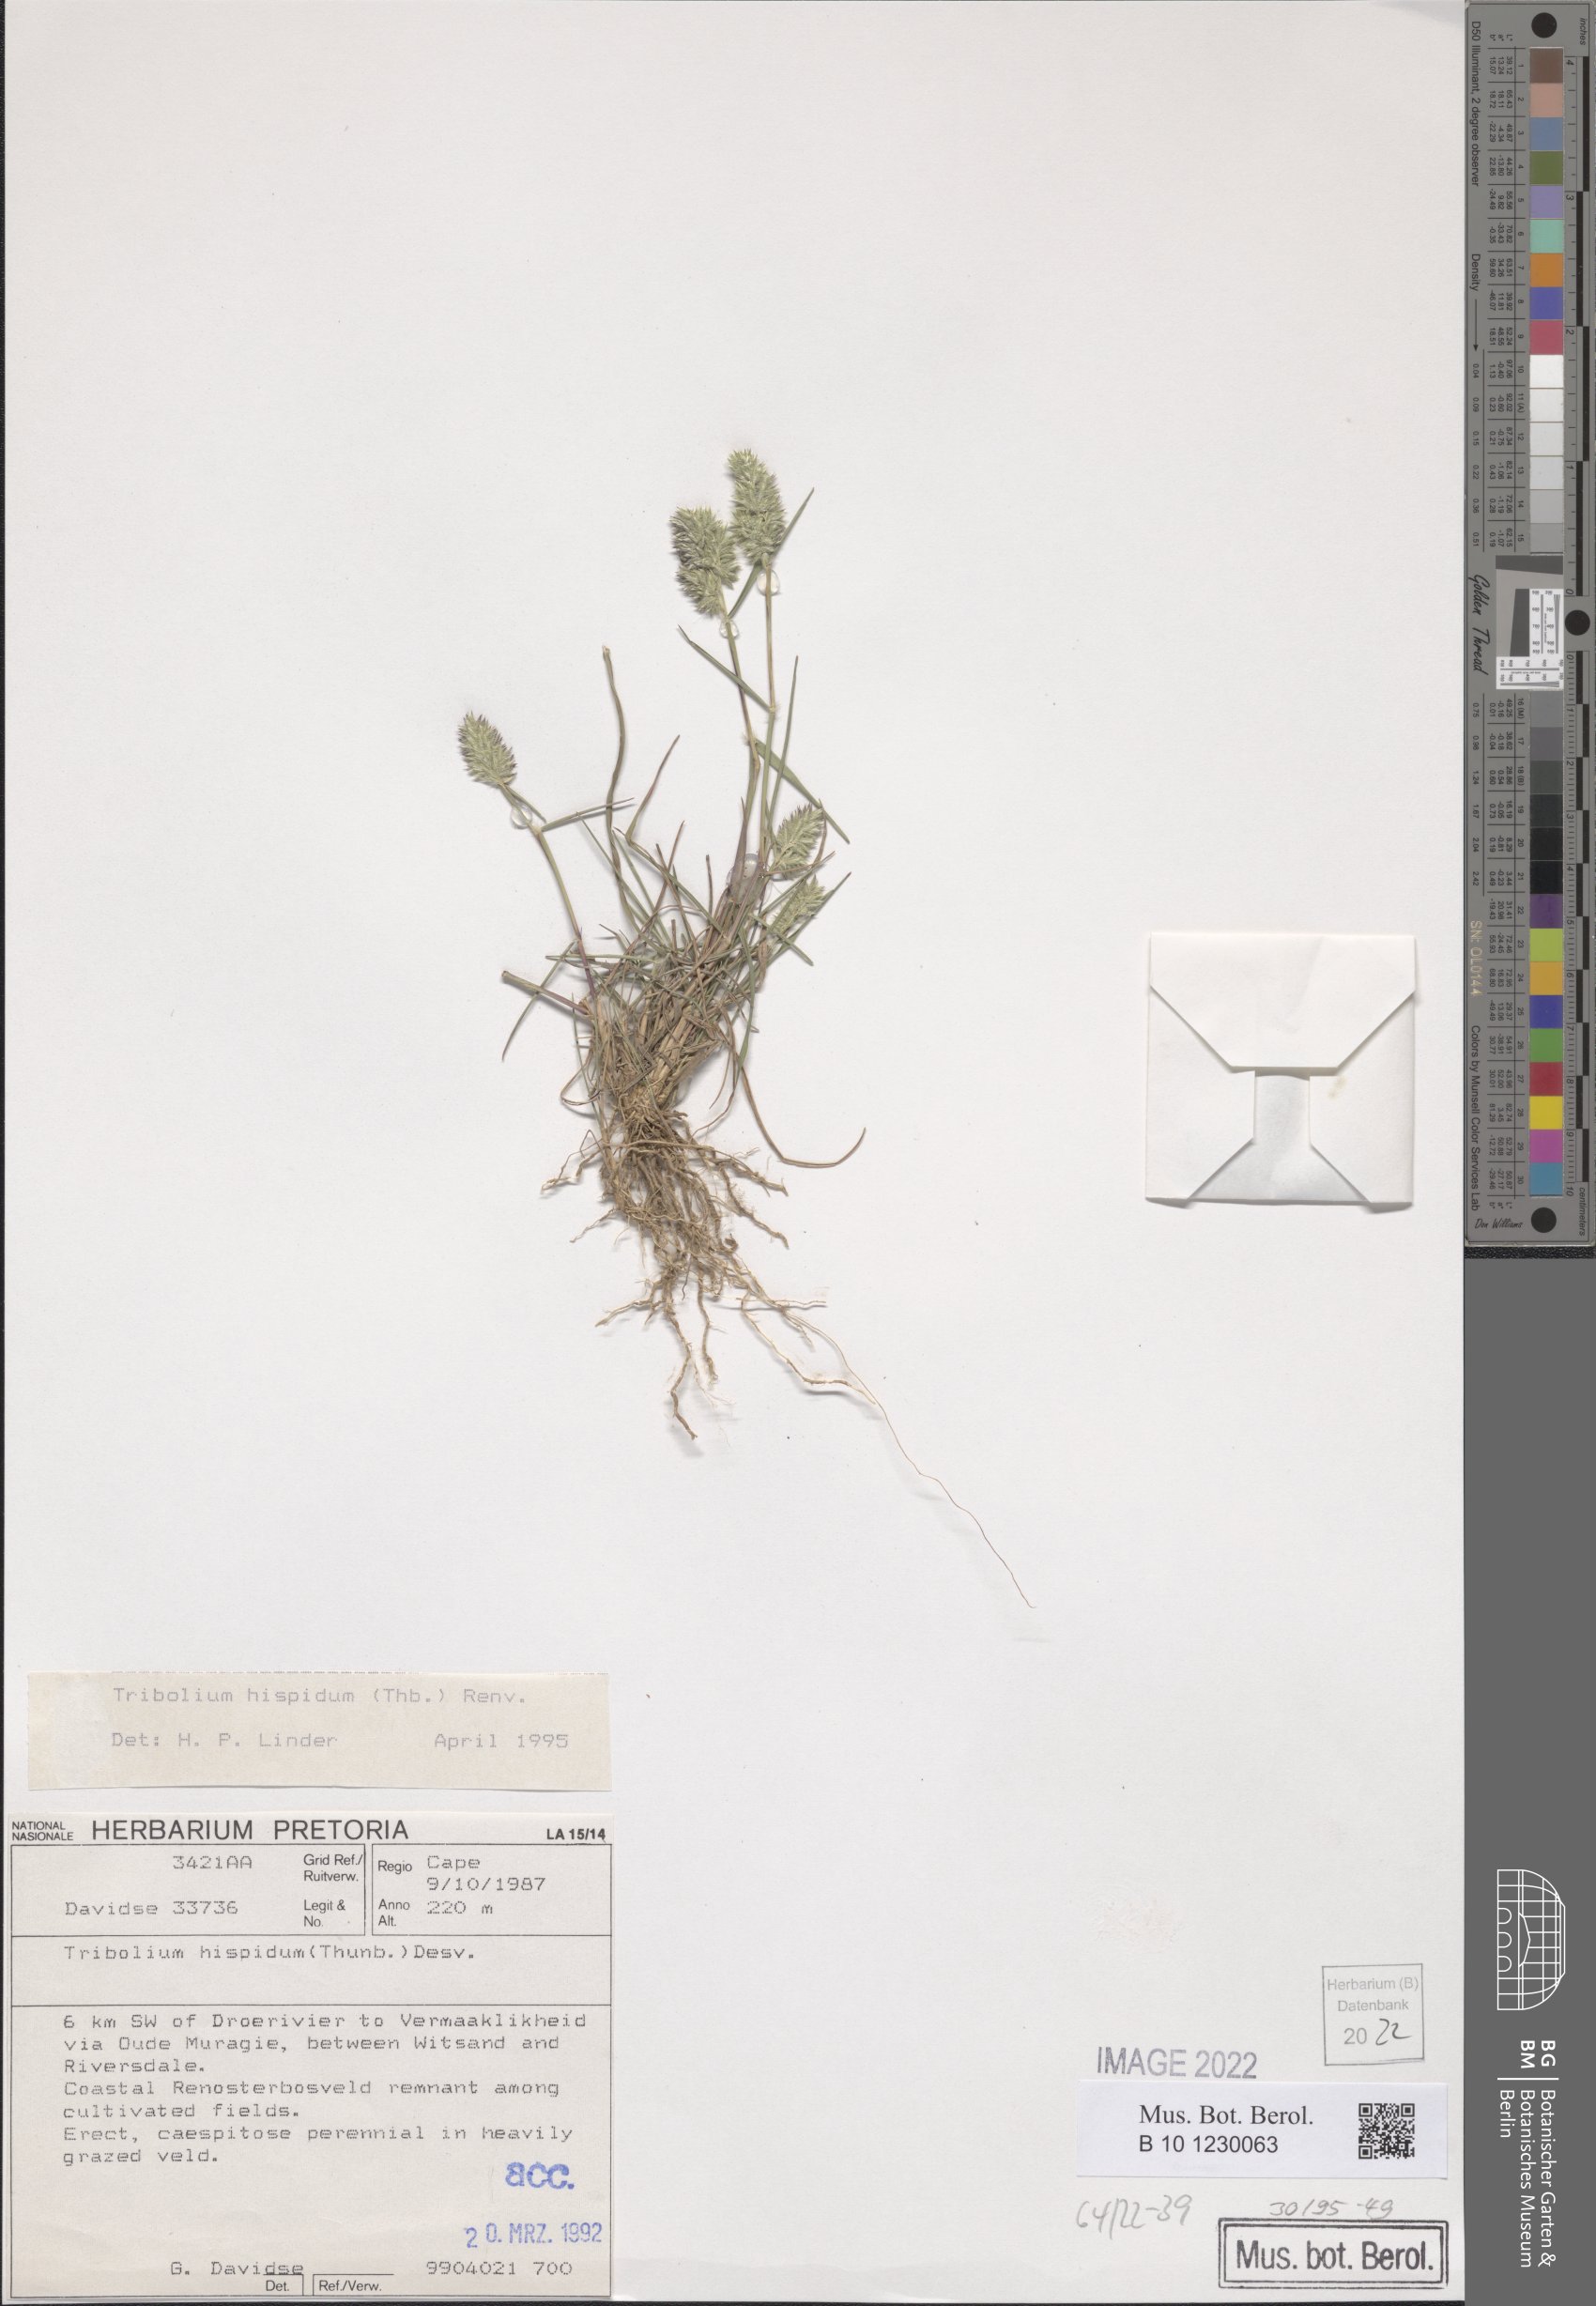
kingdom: Plantae
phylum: Tracheophyta
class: Liliopsida
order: Poales
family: Poaceae
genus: Tribolium
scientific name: Tribolium hispidum
